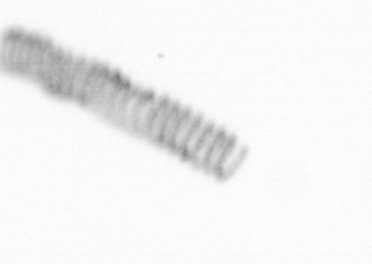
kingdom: Chromista
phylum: Ochrophyta
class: Bacillariophyceae
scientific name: Bacillariophyceae
